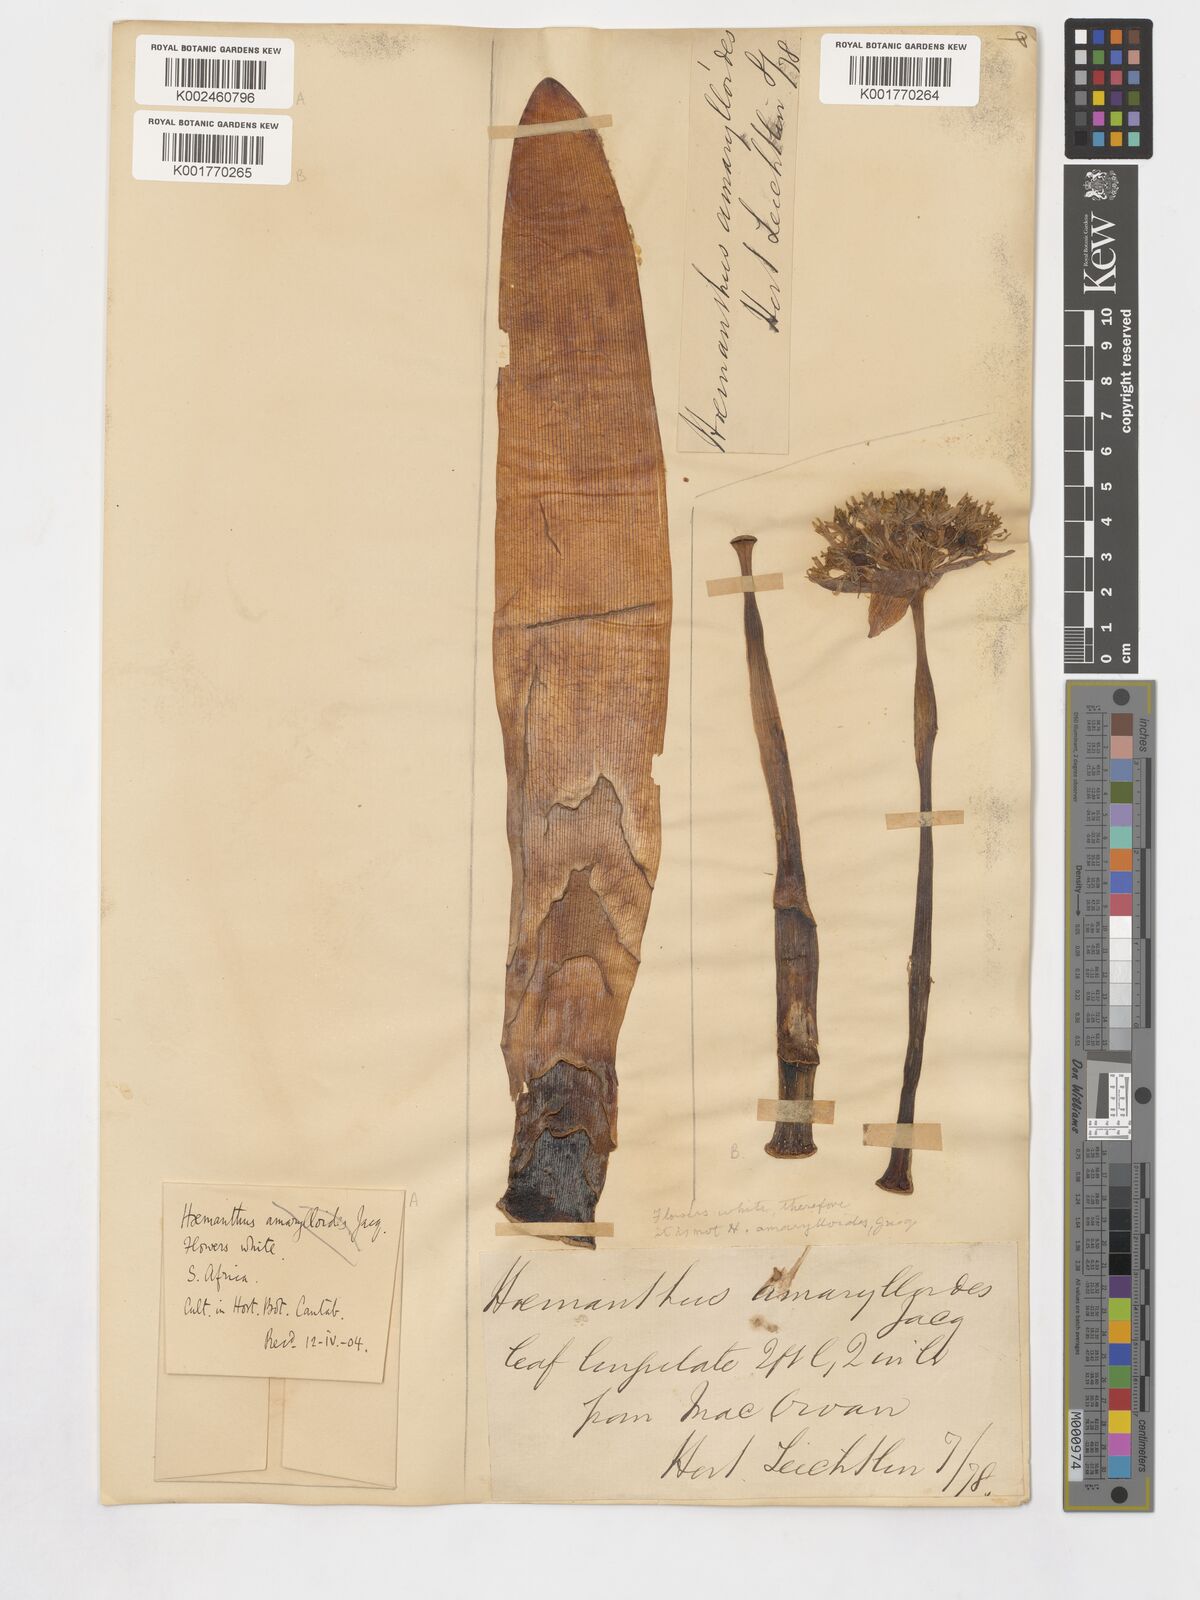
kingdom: Plantae
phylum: Tracheophyta
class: Liliopsida
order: Asparagales
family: Amaryllidaceae
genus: Haemanthus
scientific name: Haemanthus amarylloides
